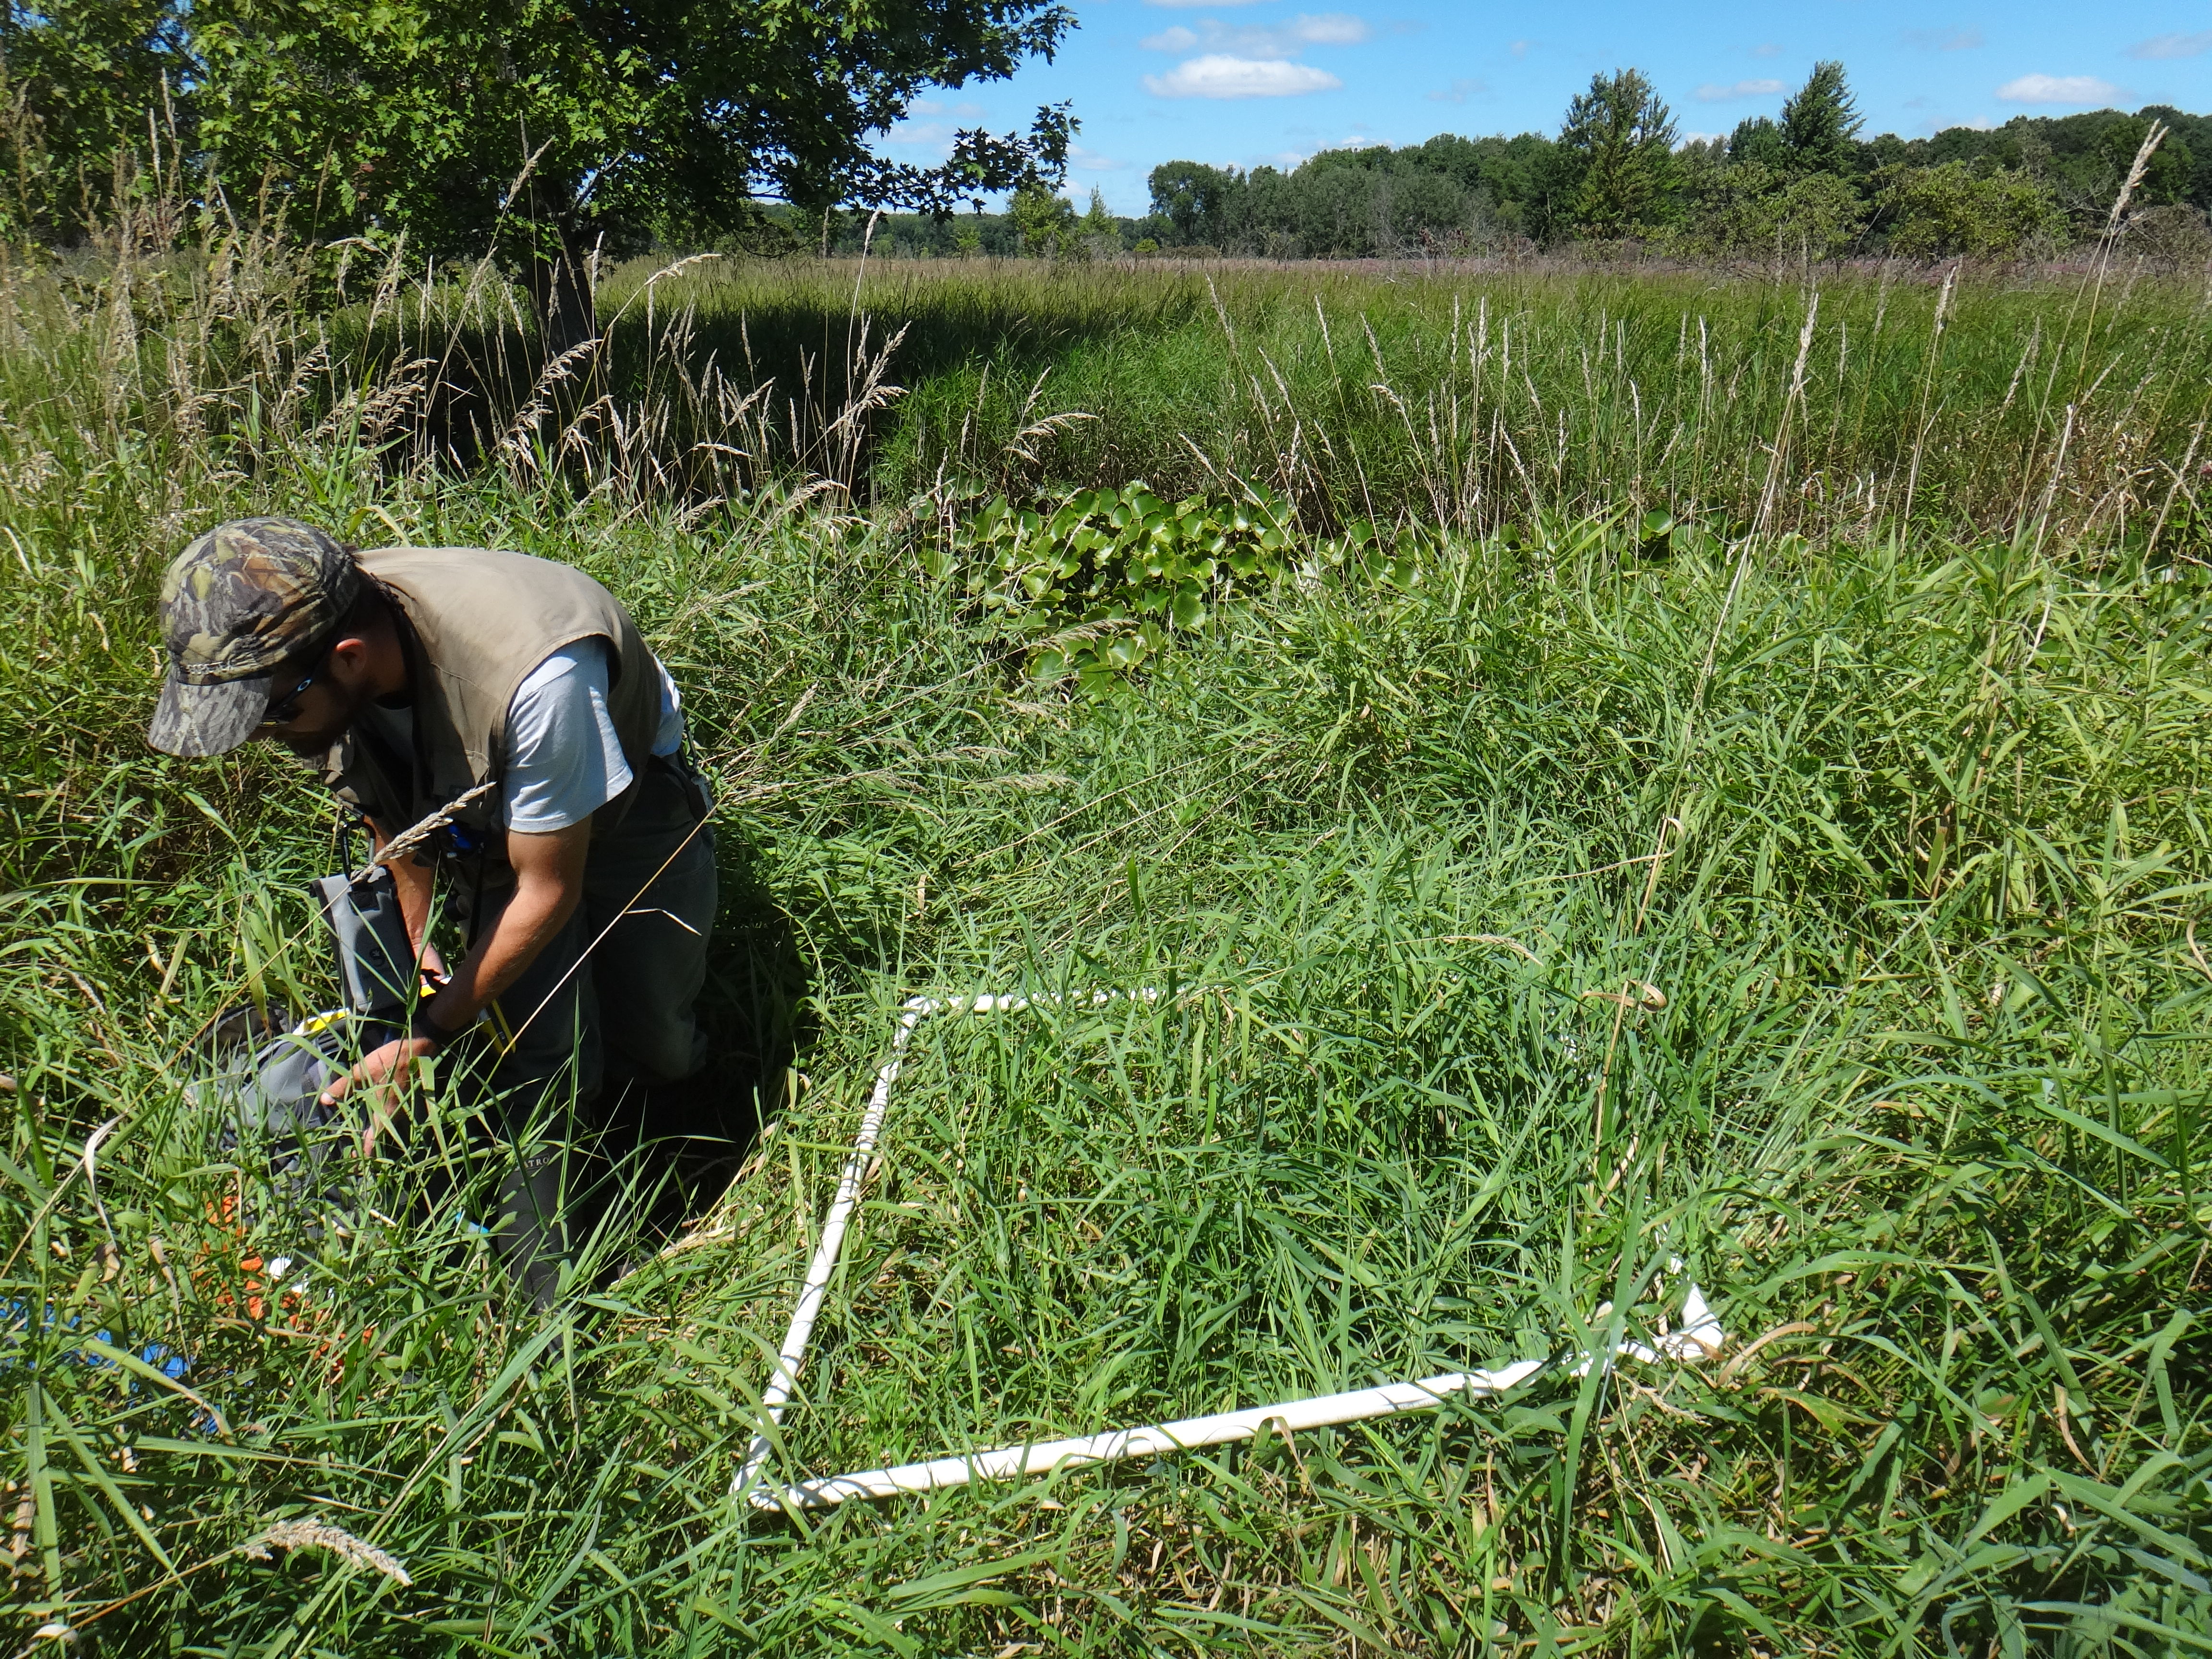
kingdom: Plantae
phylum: Tracheophyta
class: Liliopsida
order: Poales
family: Poaceae
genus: Phalaris
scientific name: Phalaris arundinacea
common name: Reed canary-grass
